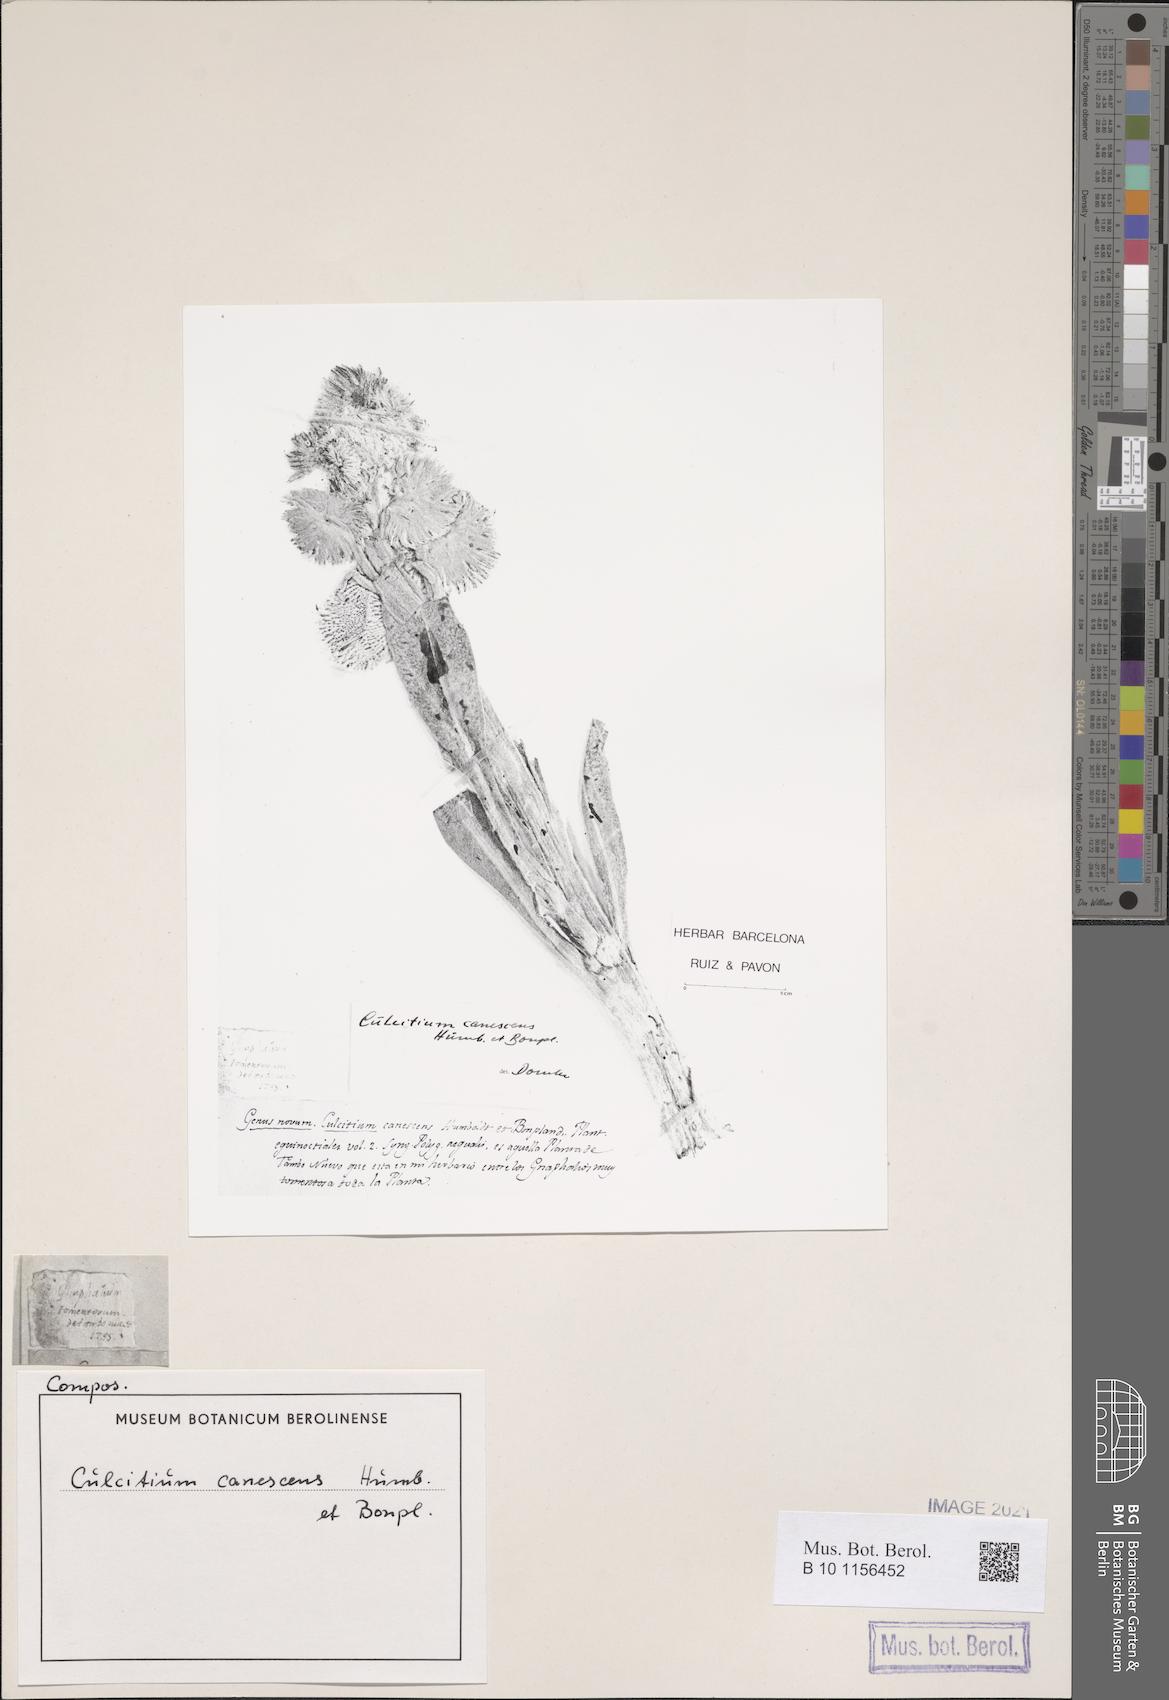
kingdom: Plantae
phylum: Tracheophyta
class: Magnoliopsida
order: Asterales
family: Asteraceae
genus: Culcitium
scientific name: Culcitium canescens
